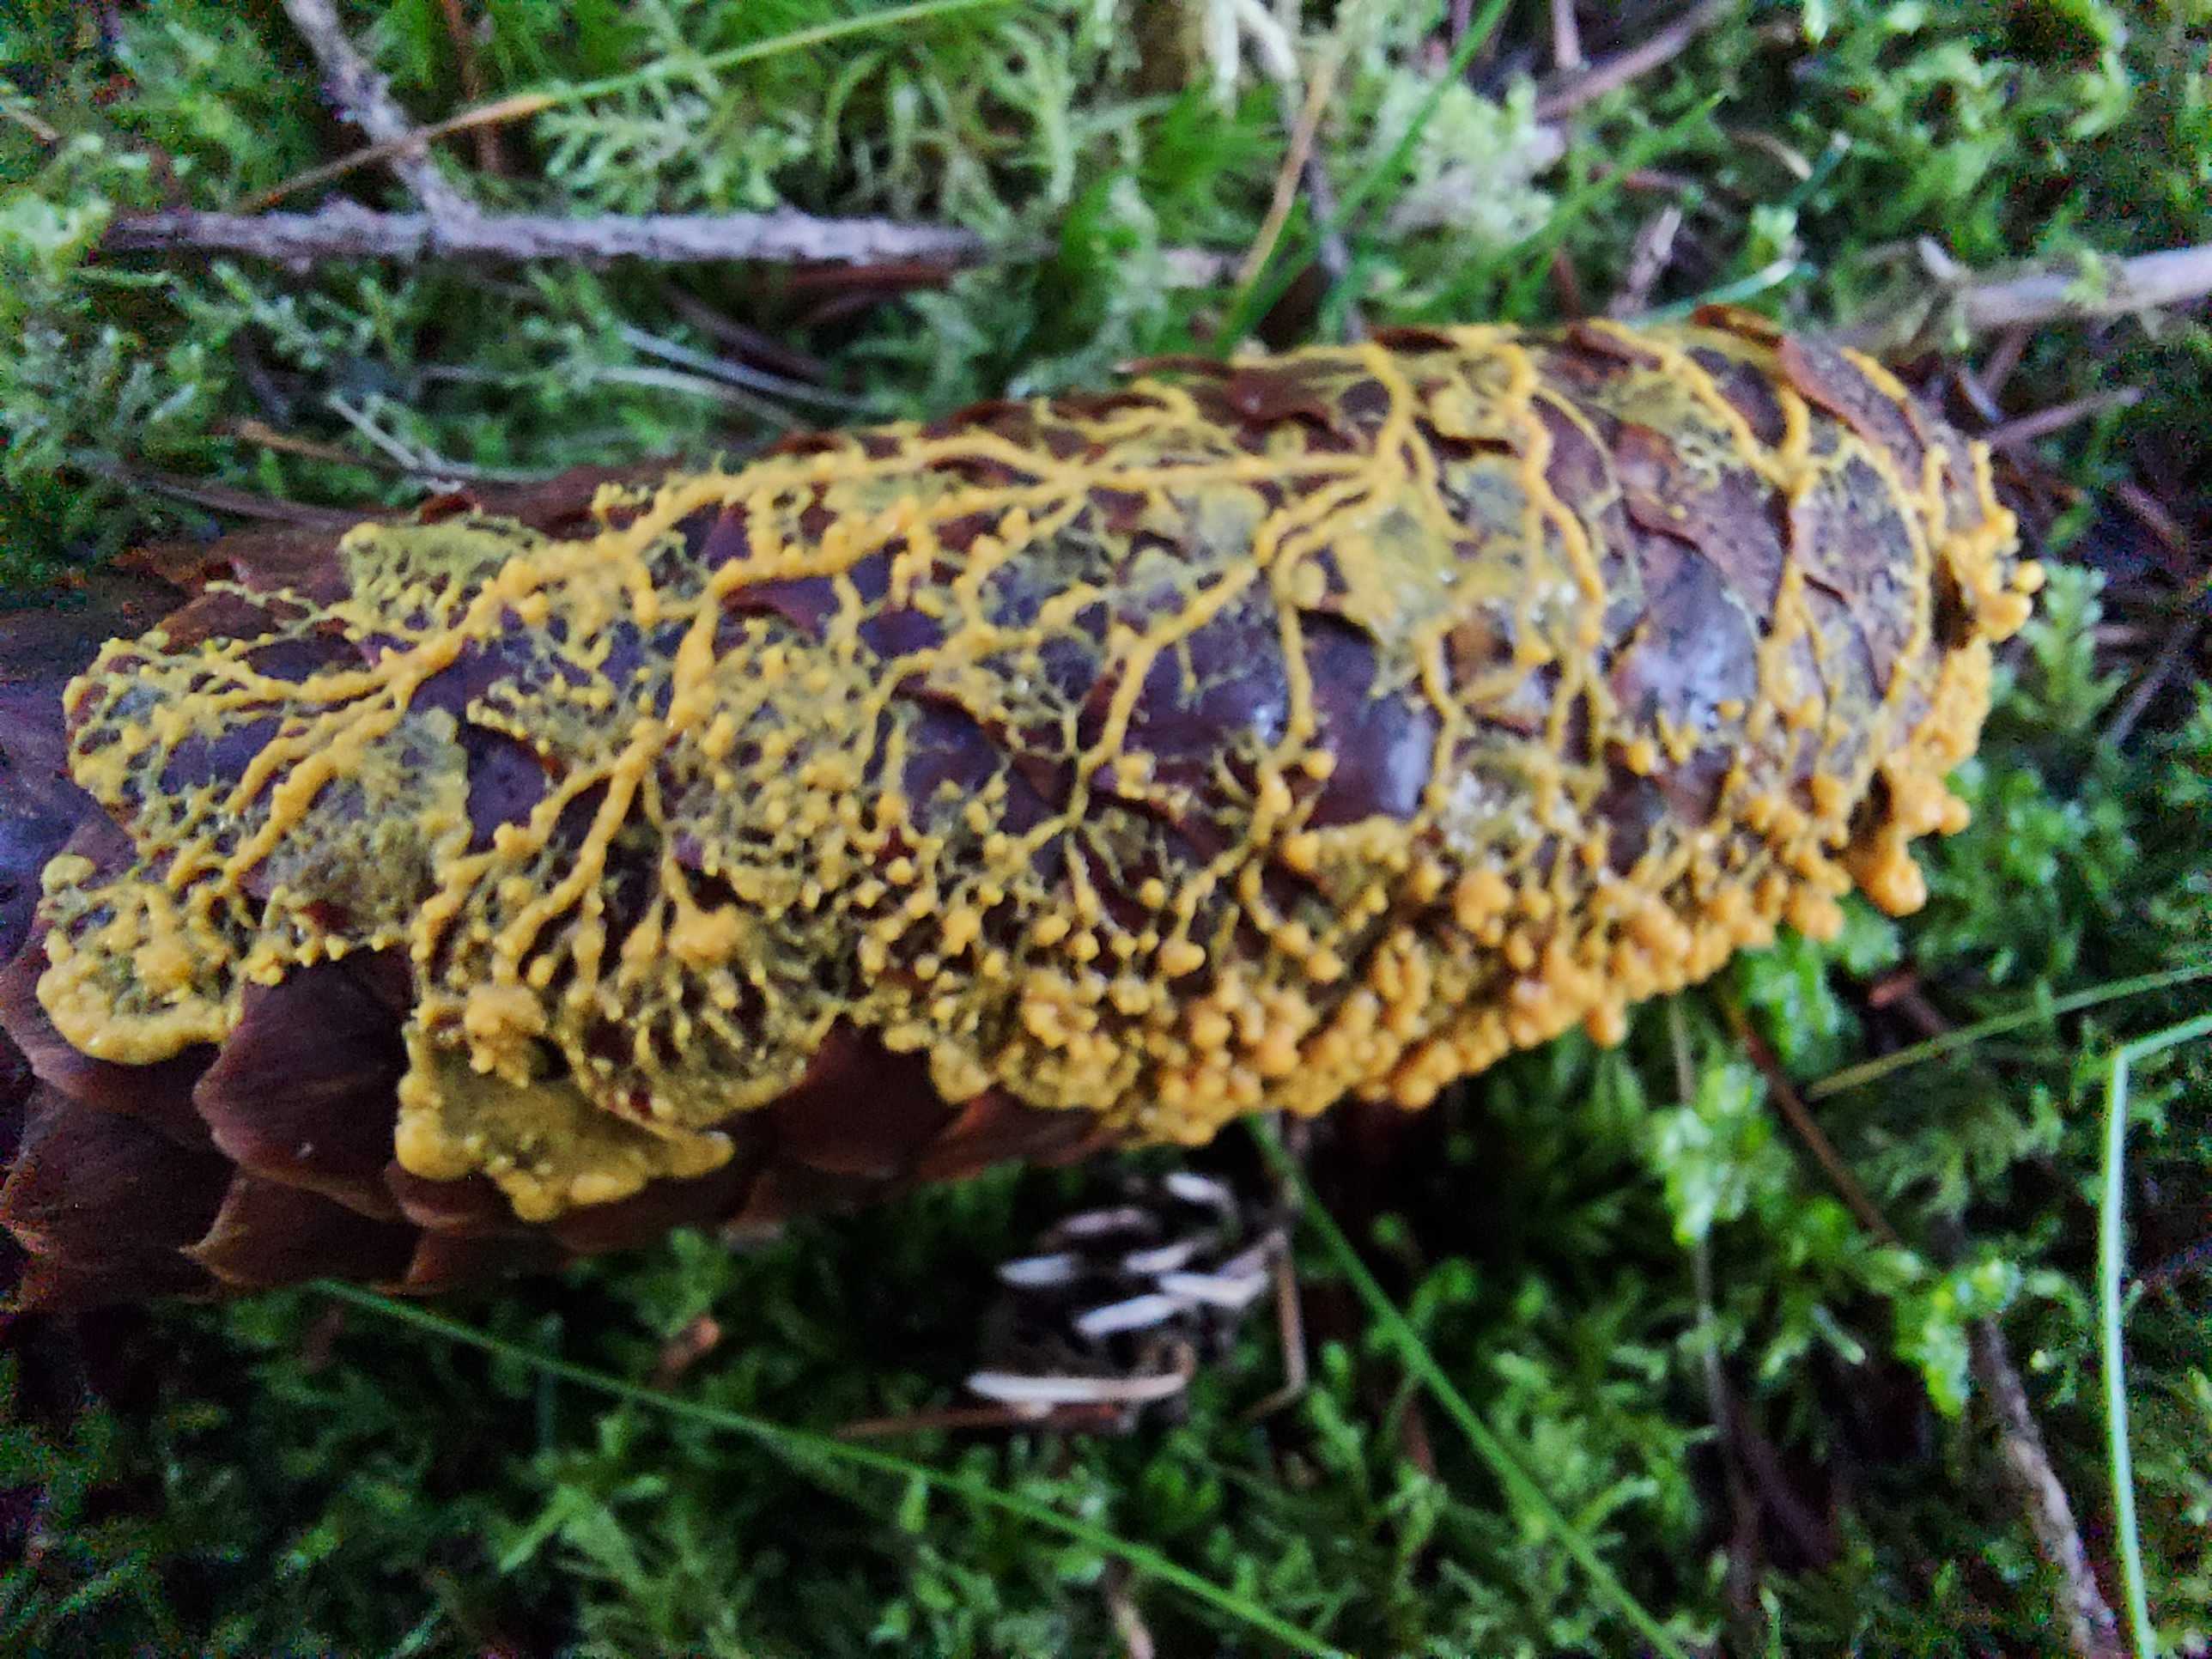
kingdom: Protozoa
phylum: Mycetozoa
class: Myxomycetes
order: Physarales
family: Physaraceae
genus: Leocarpus
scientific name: Leocarpus fragilis
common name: poleret glatfrø
